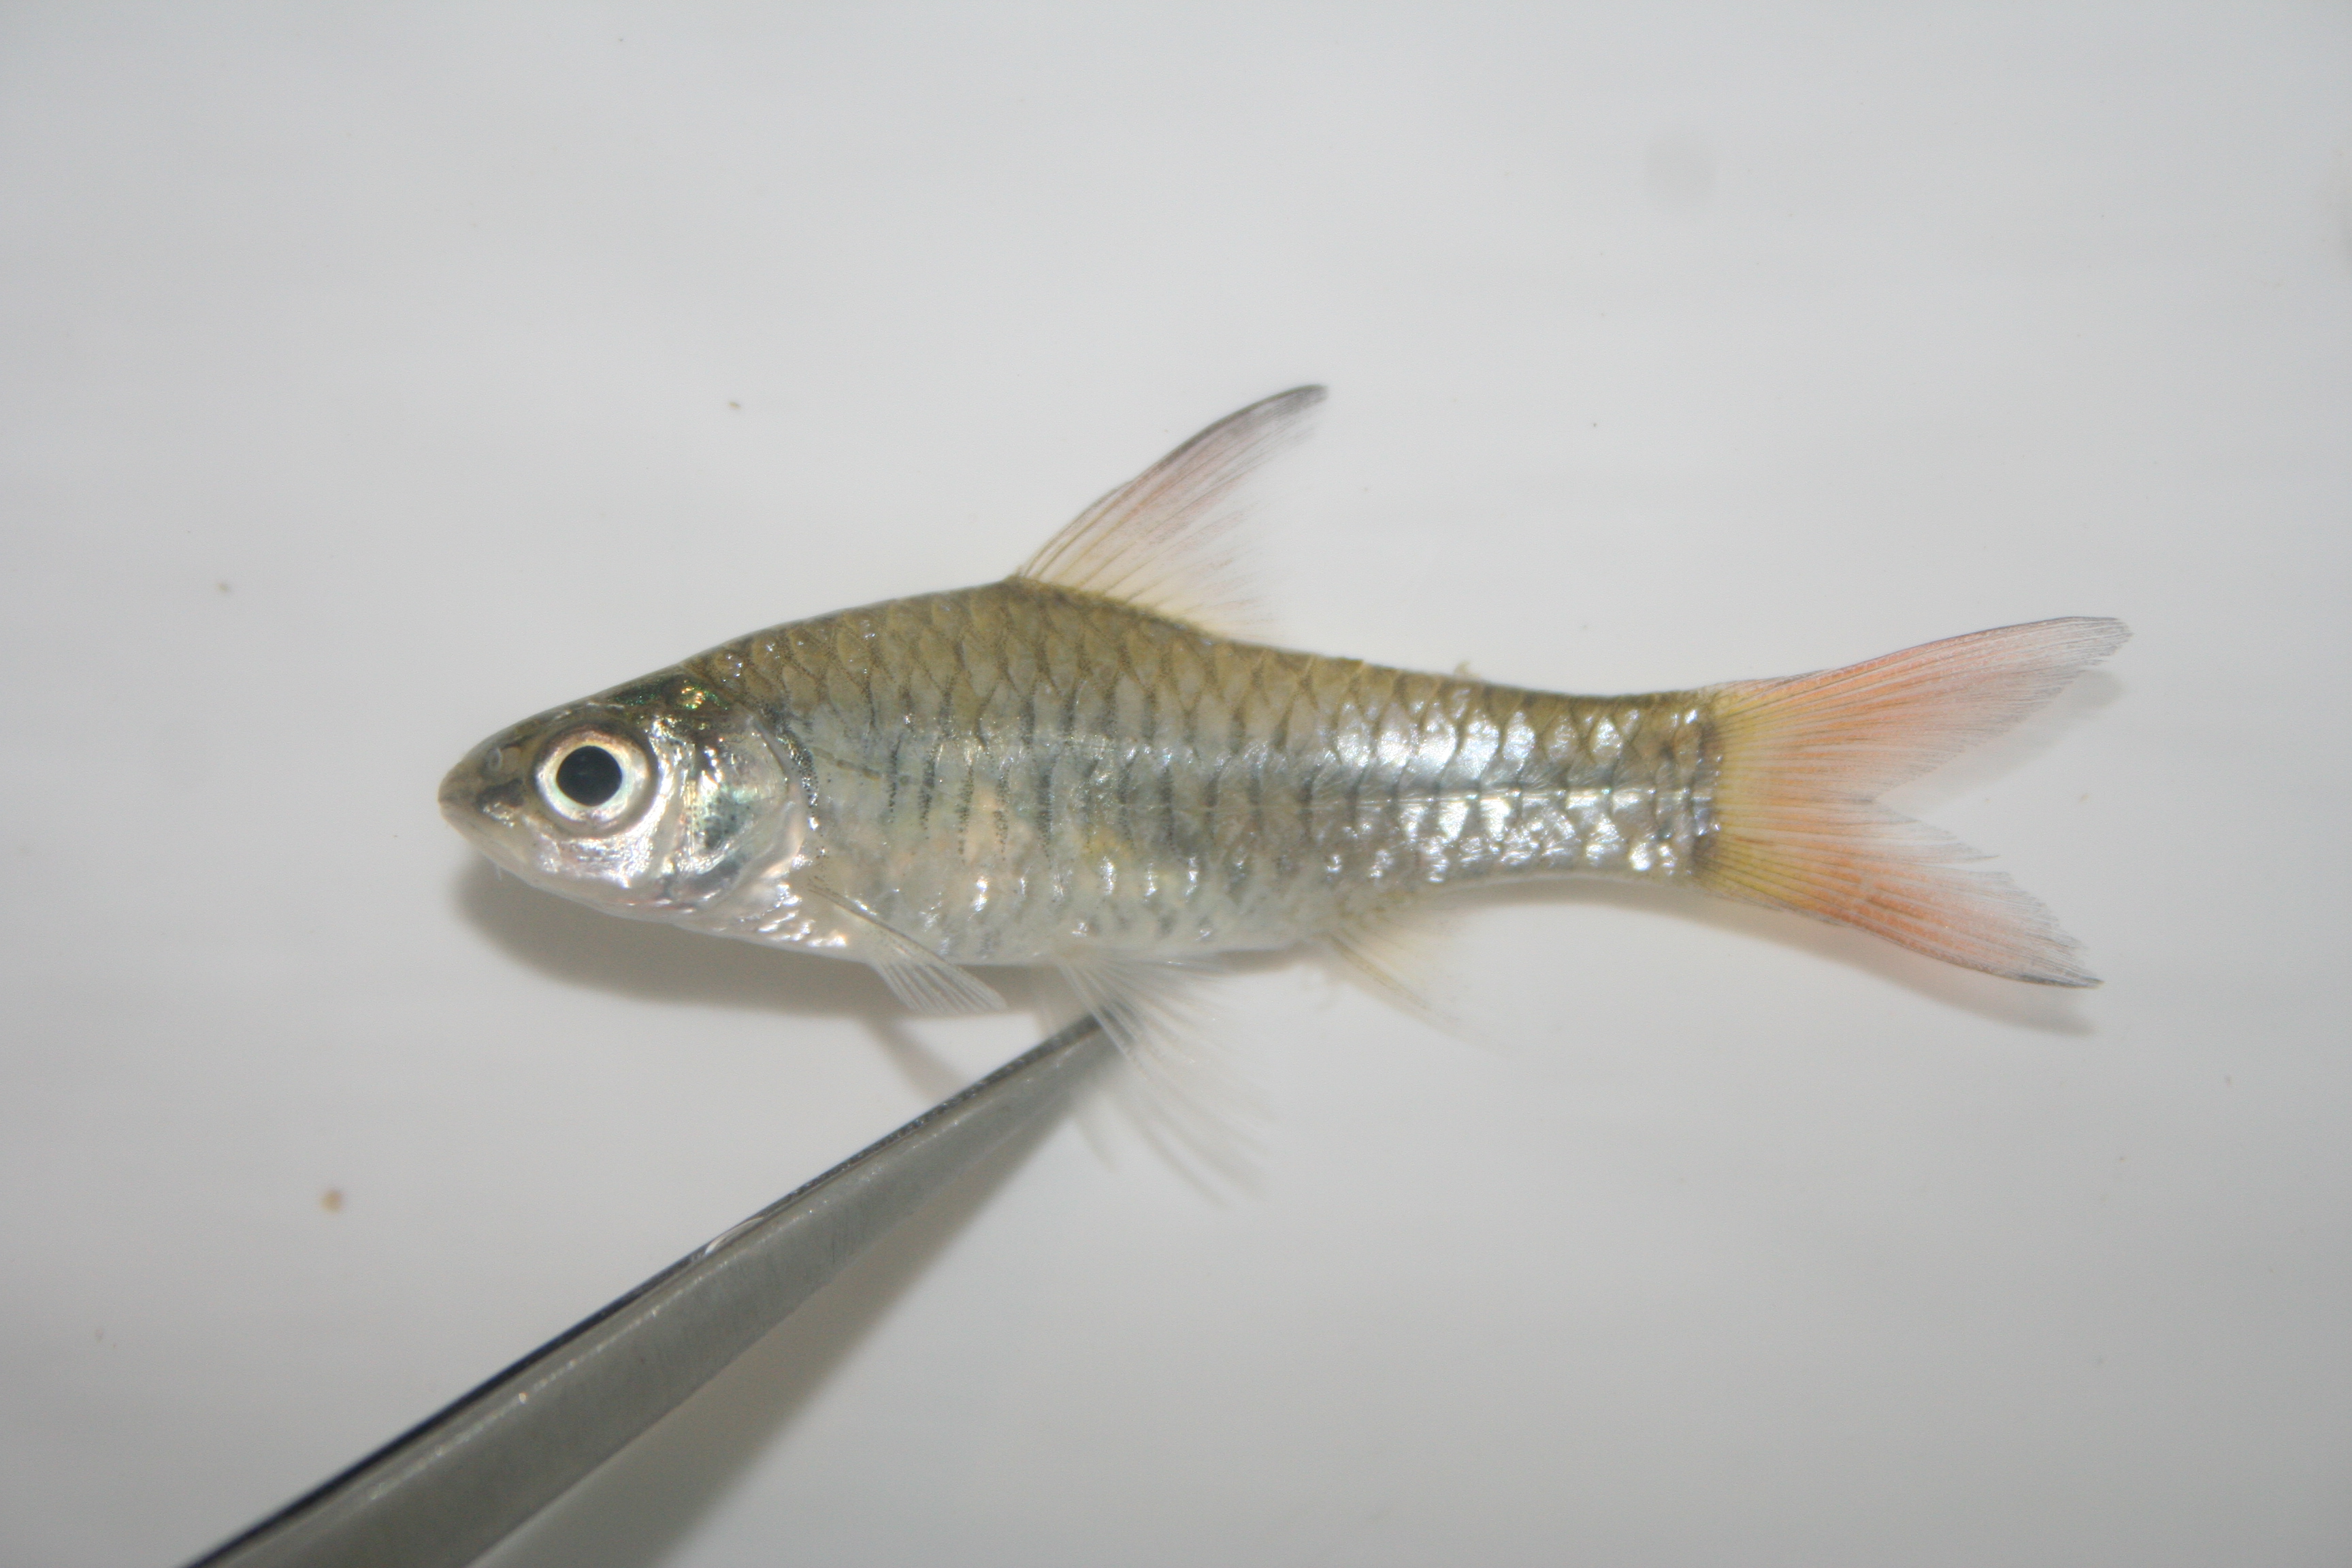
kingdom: Animalia
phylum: Chordata
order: Cypriniformes
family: Cyprinidae
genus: Enteromius
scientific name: Enteromius musumbi
